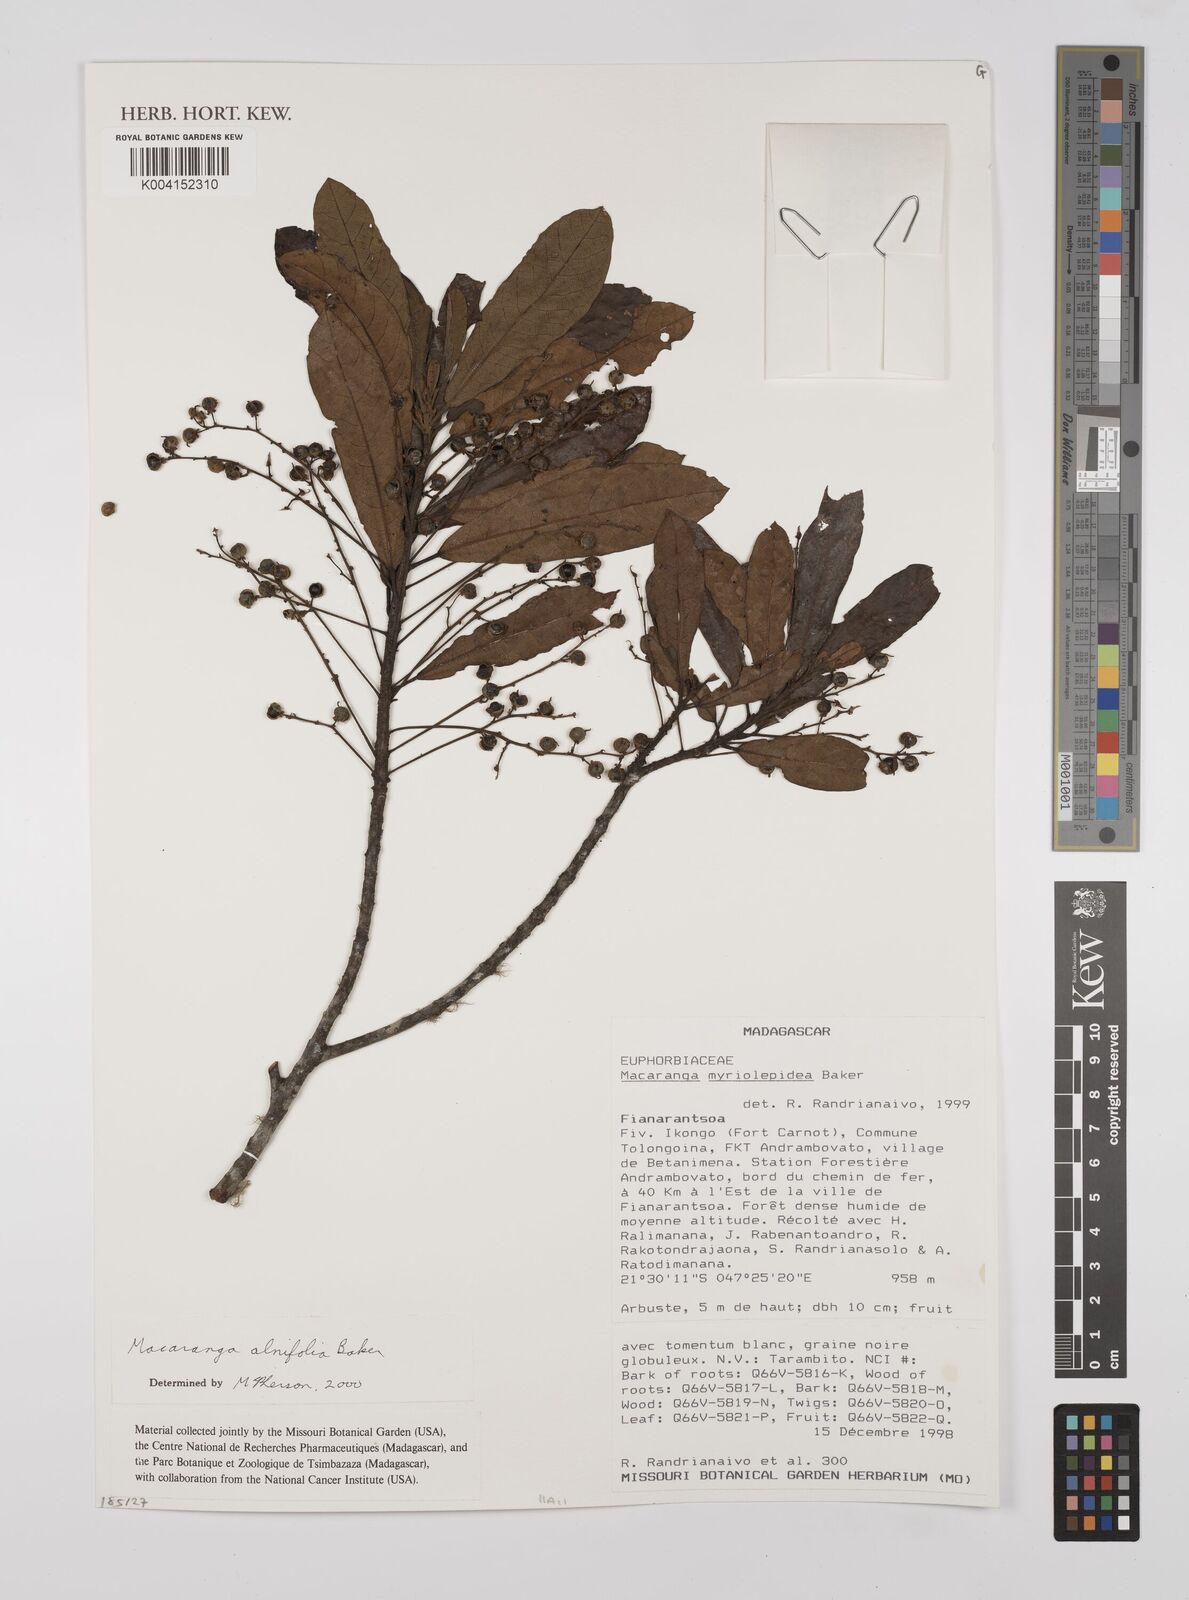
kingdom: Plantae
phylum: Tracheophyta
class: Magnoliopsida
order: Malpighiales
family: Euphorbiaceae
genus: Macaranga
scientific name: Macaranga myriolepida
